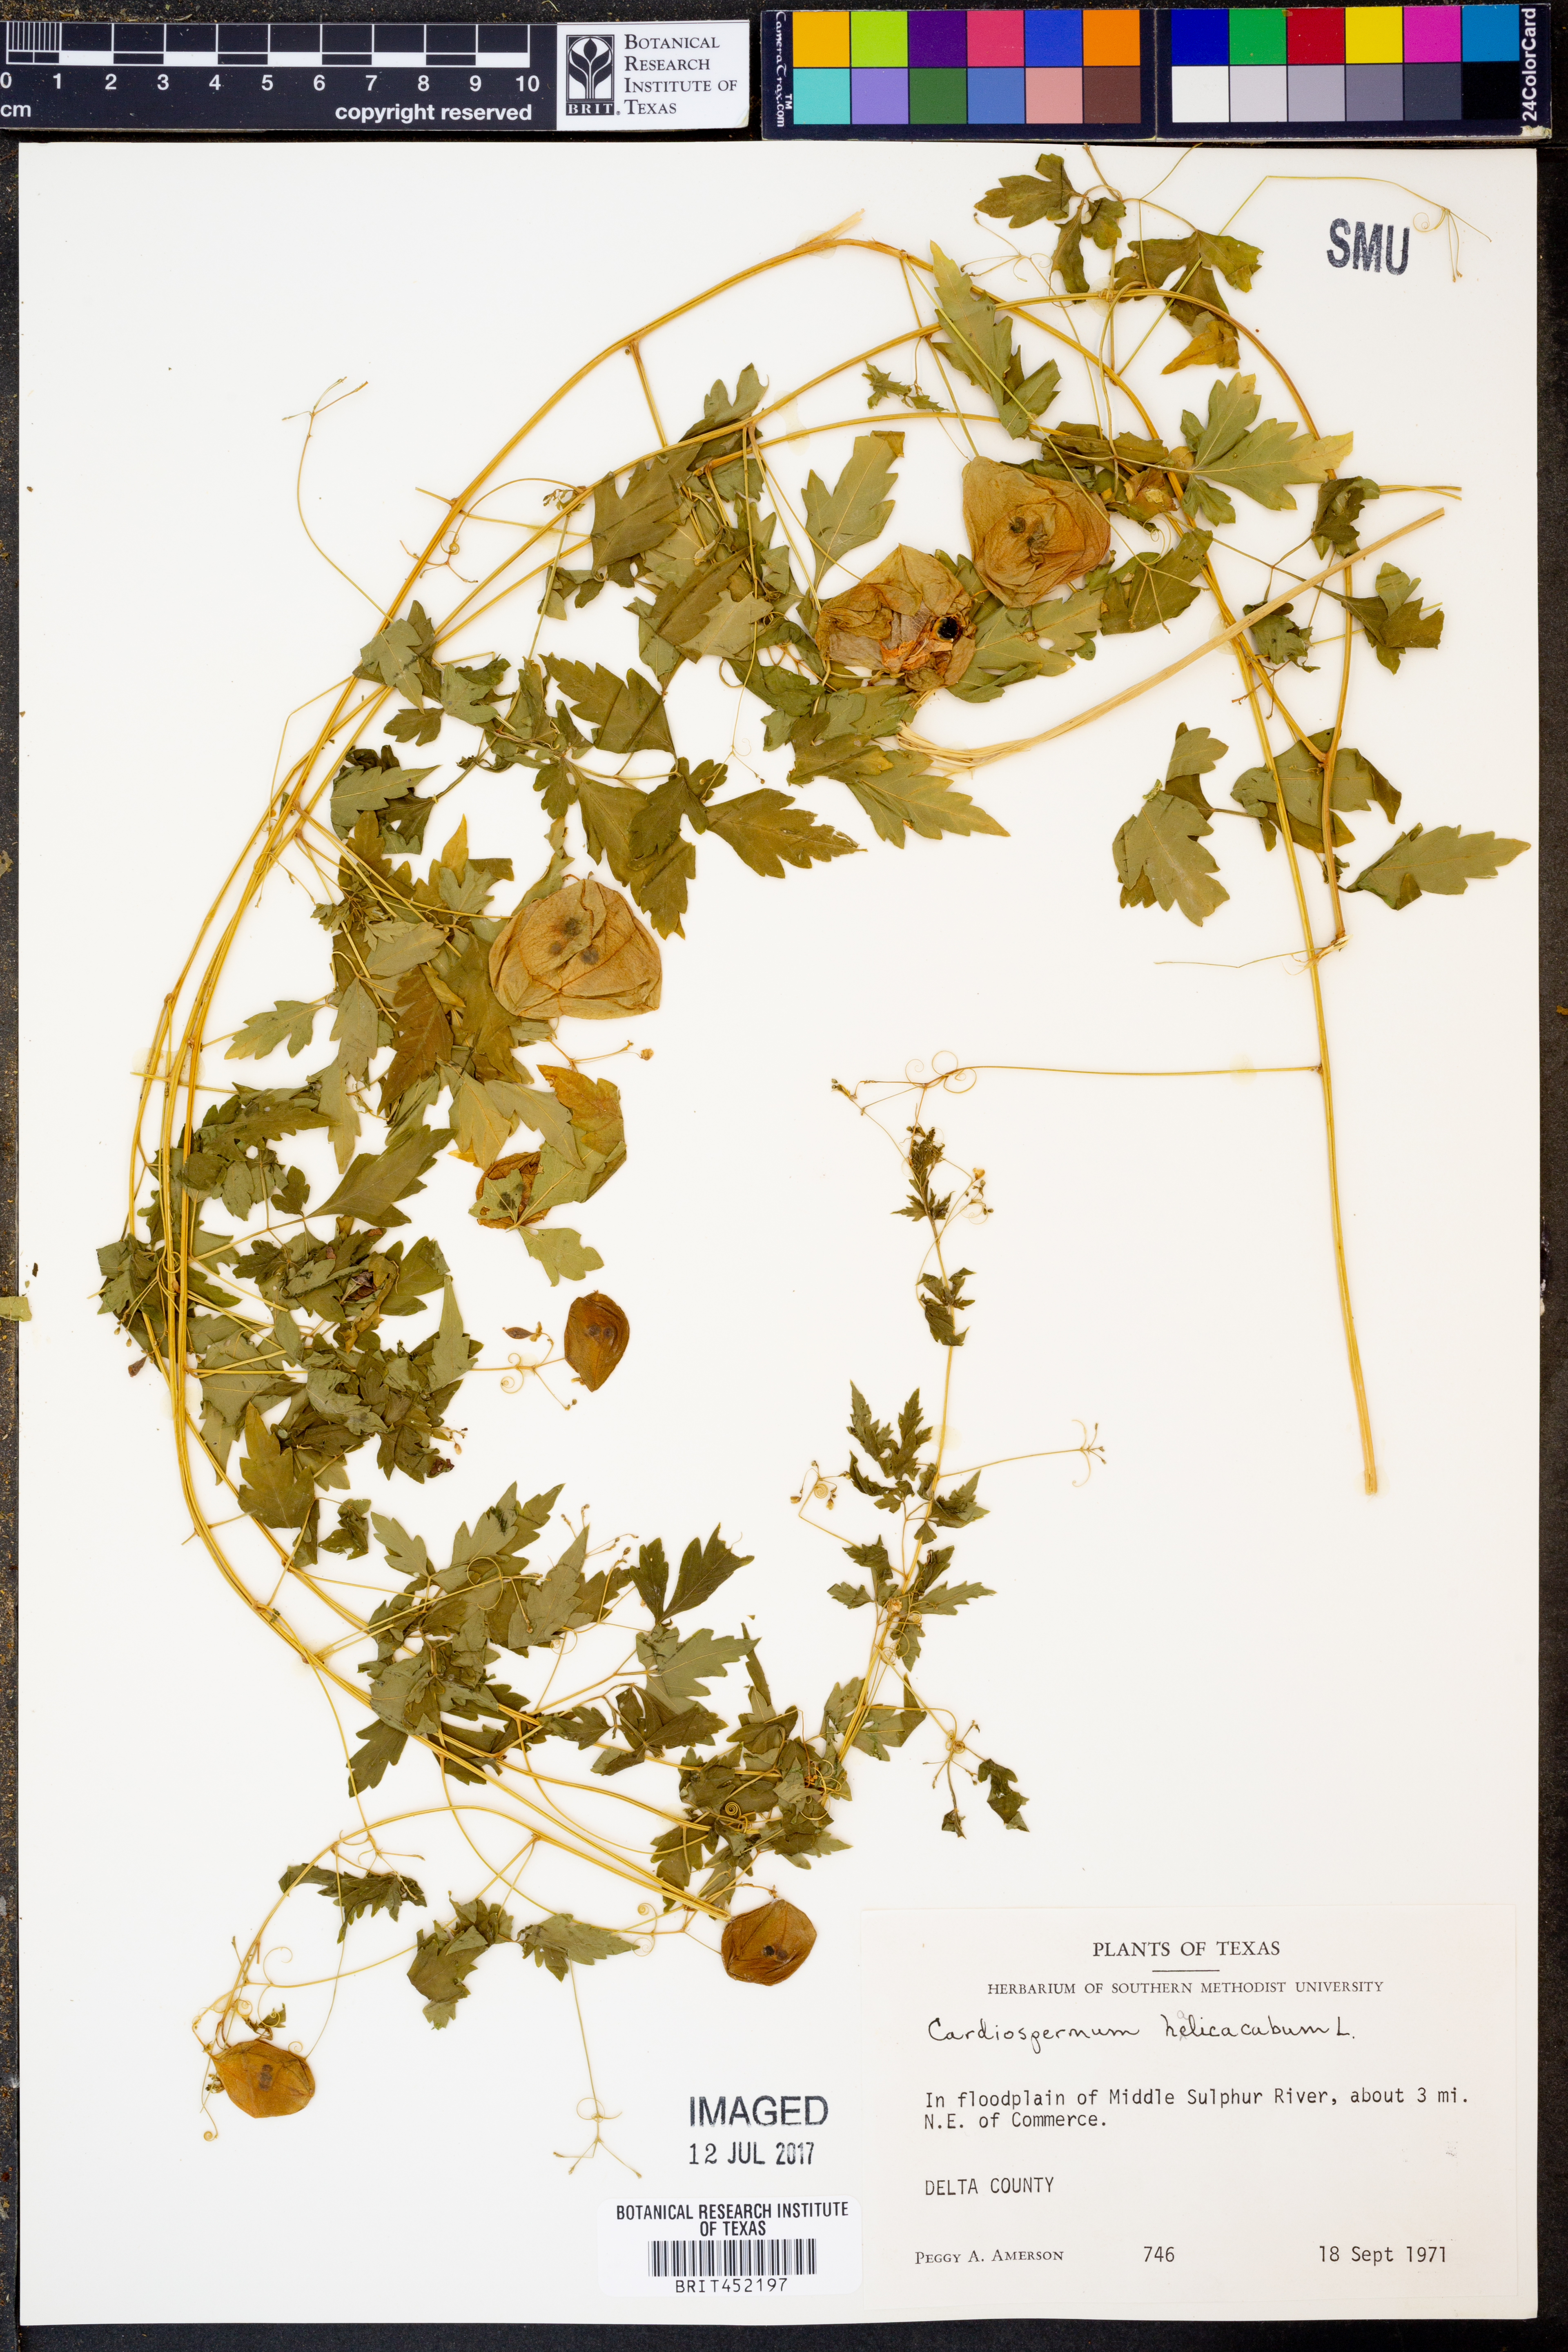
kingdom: Plantae
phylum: Tracheophyta
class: Magnoliopsida
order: Sapindales
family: Sapindaceae
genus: Cardiospermum
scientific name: Cardiospermum halicacabum
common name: Balloon vine
